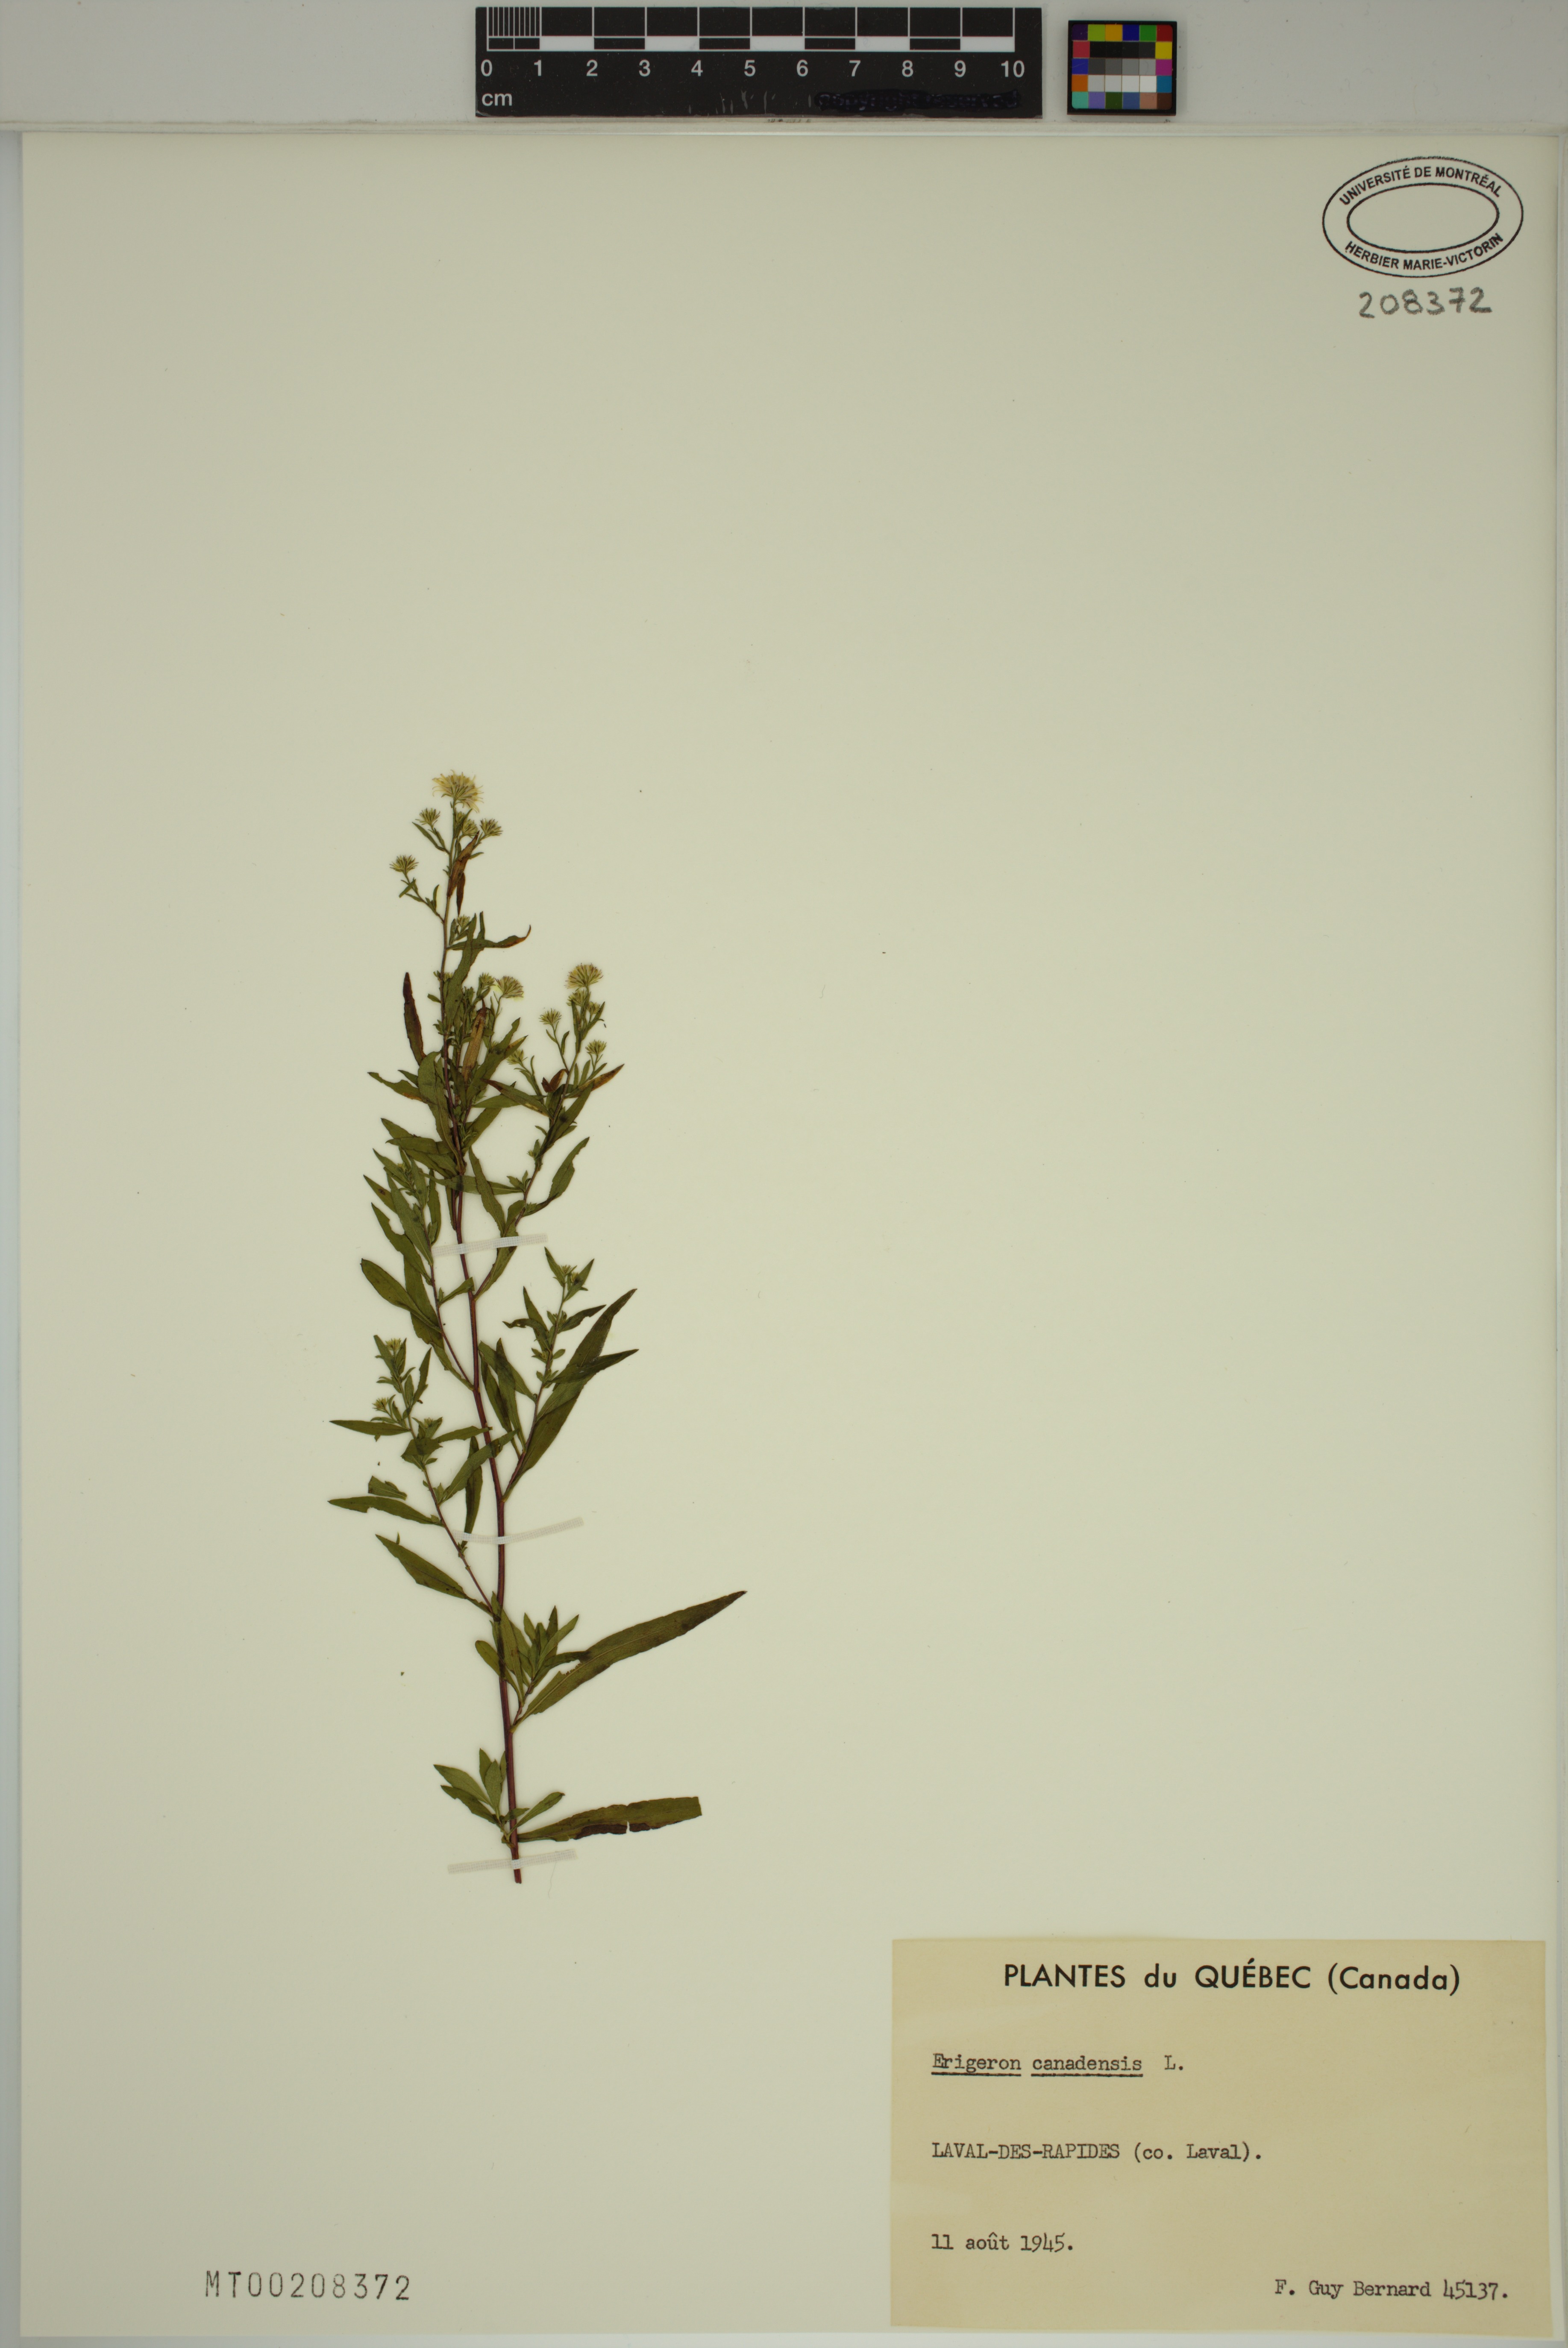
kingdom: Plantae
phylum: Tracheophyta
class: Magnoliopsida
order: Asterales
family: Asteraceae
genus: Symphyotrichum
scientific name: Symphyotrichum lanceolatum
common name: Panicled aster
